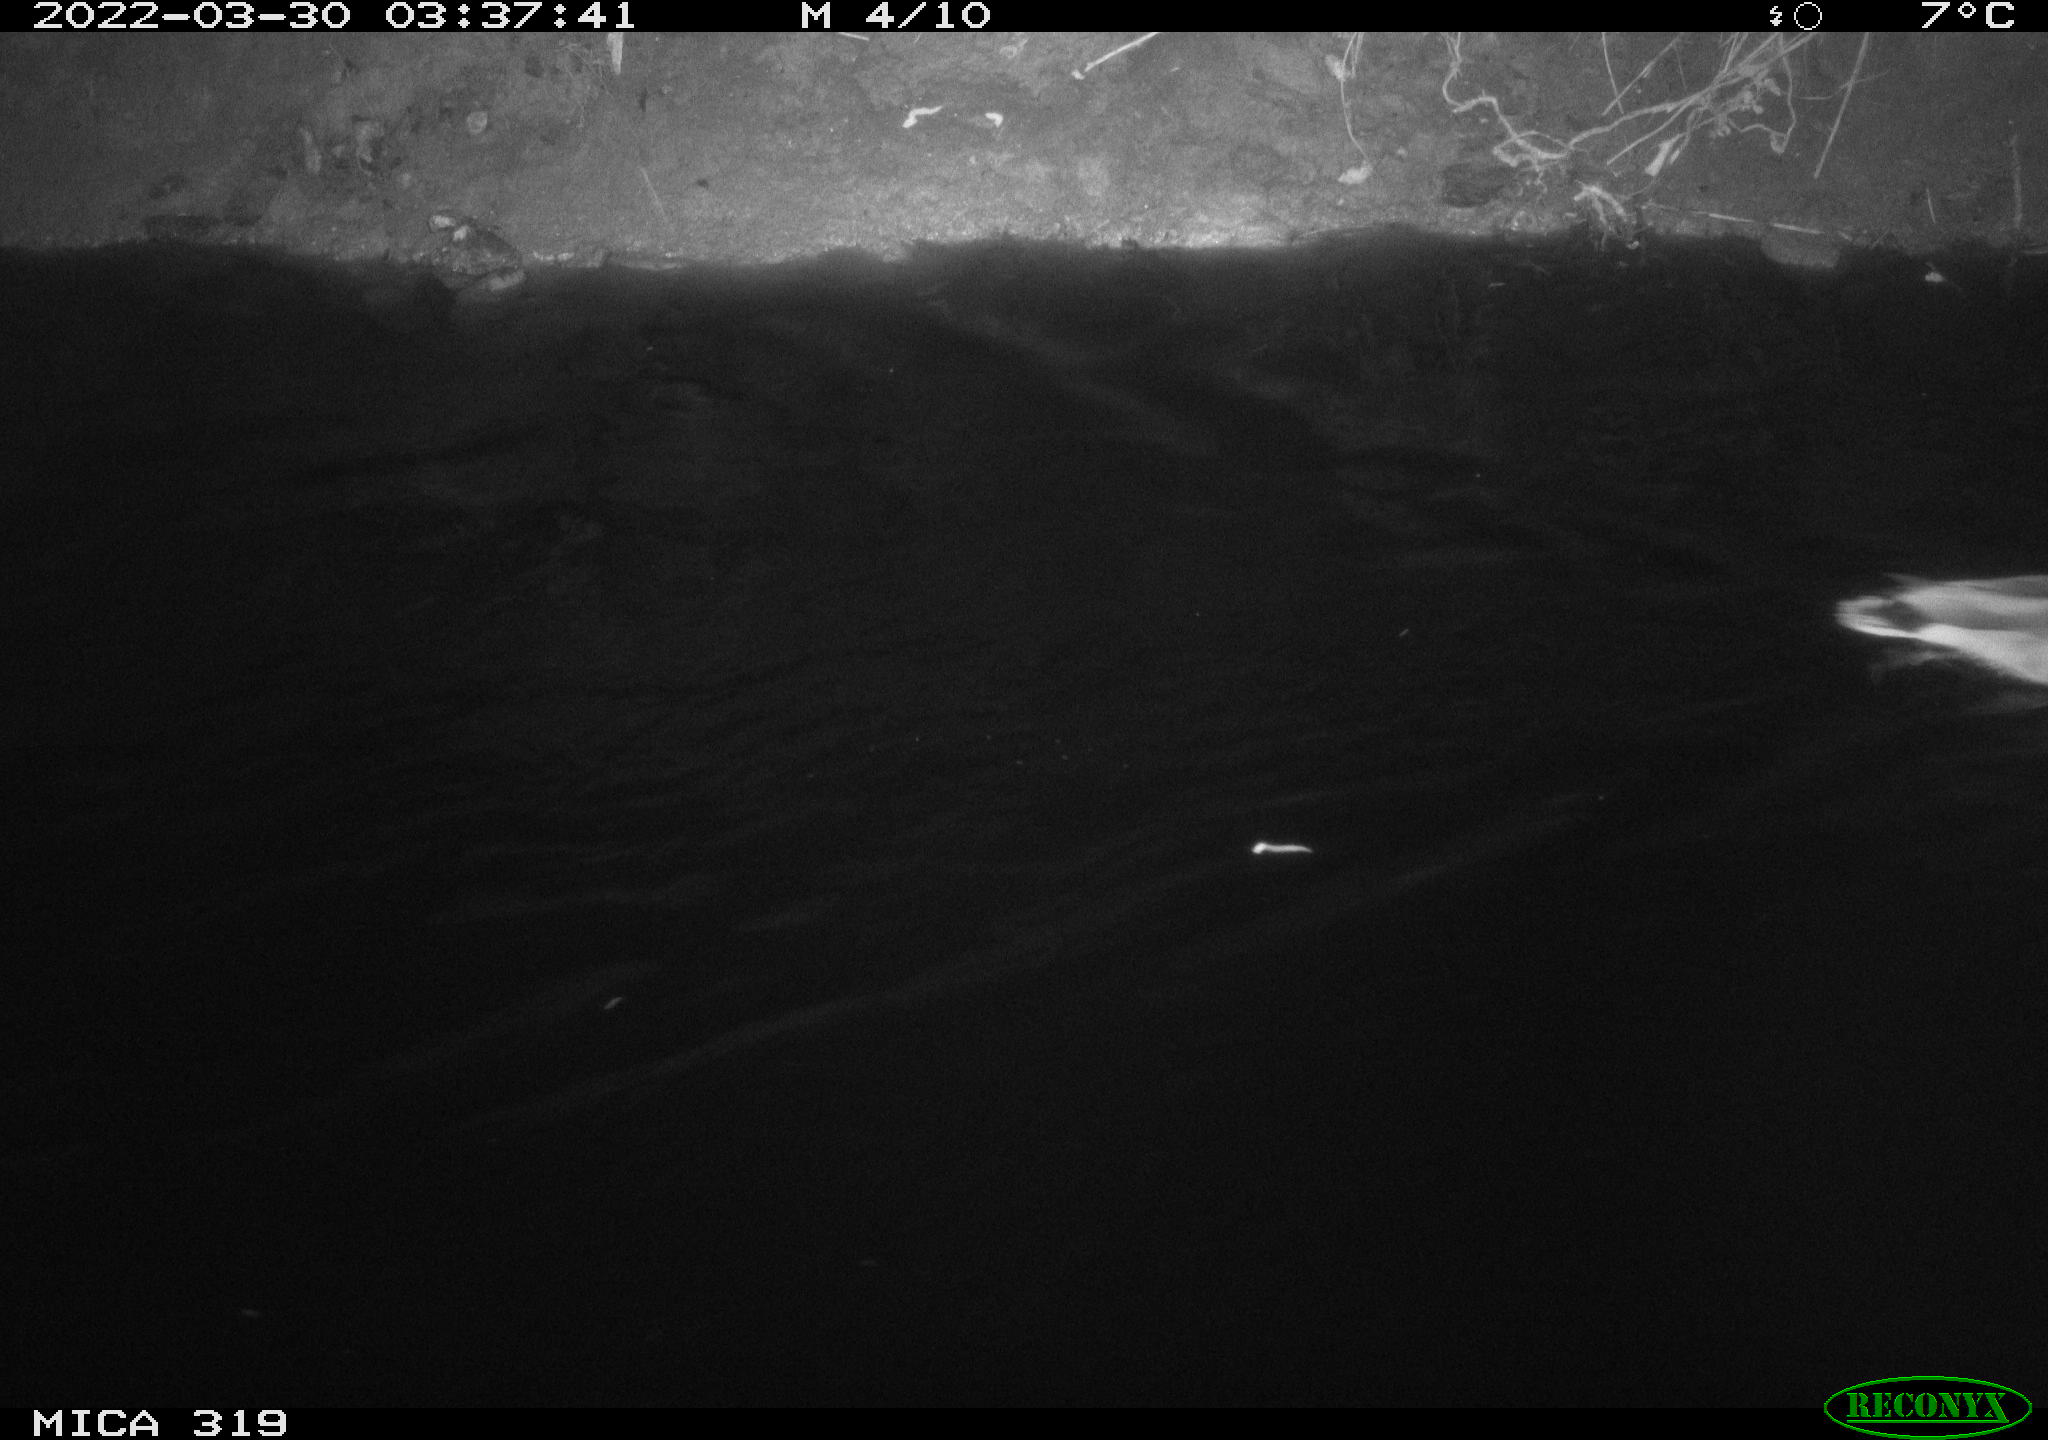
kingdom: Animalia
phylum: Chordata
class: Aves
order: Anseriformes
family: Anatidae
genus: Anas
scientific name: Anas platyrhynchos
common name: Mallard
